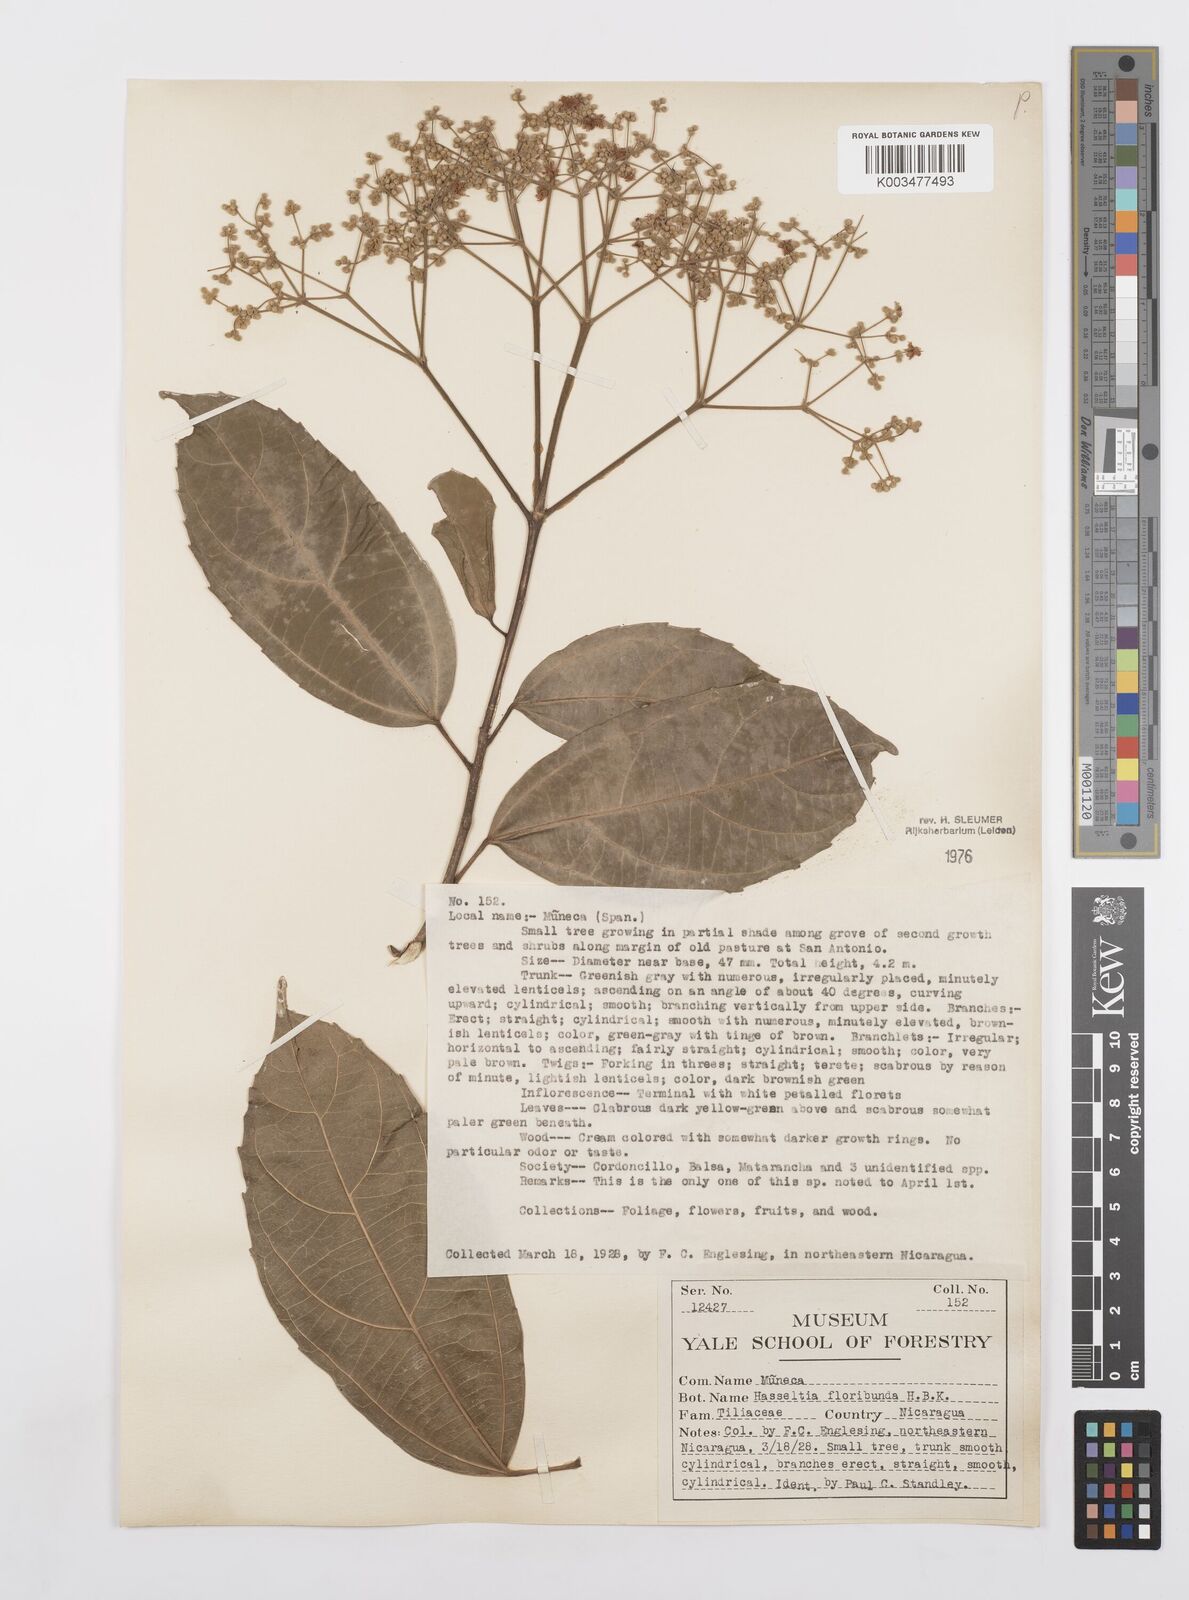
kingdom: Plantae
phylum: Tracheophyta
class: Magnoliopsida
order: Malpighiales
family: Salicaceae
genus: Hasseltia
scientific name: Hasseltia floribunda
